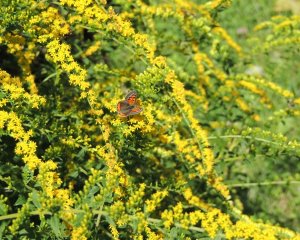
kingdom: Animalia
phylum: Arthropoda
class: Insecta
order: Lepidoptera
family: Lycaenidae
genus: Lycaena
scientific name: Lycaena phlaeas
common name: American Copper
